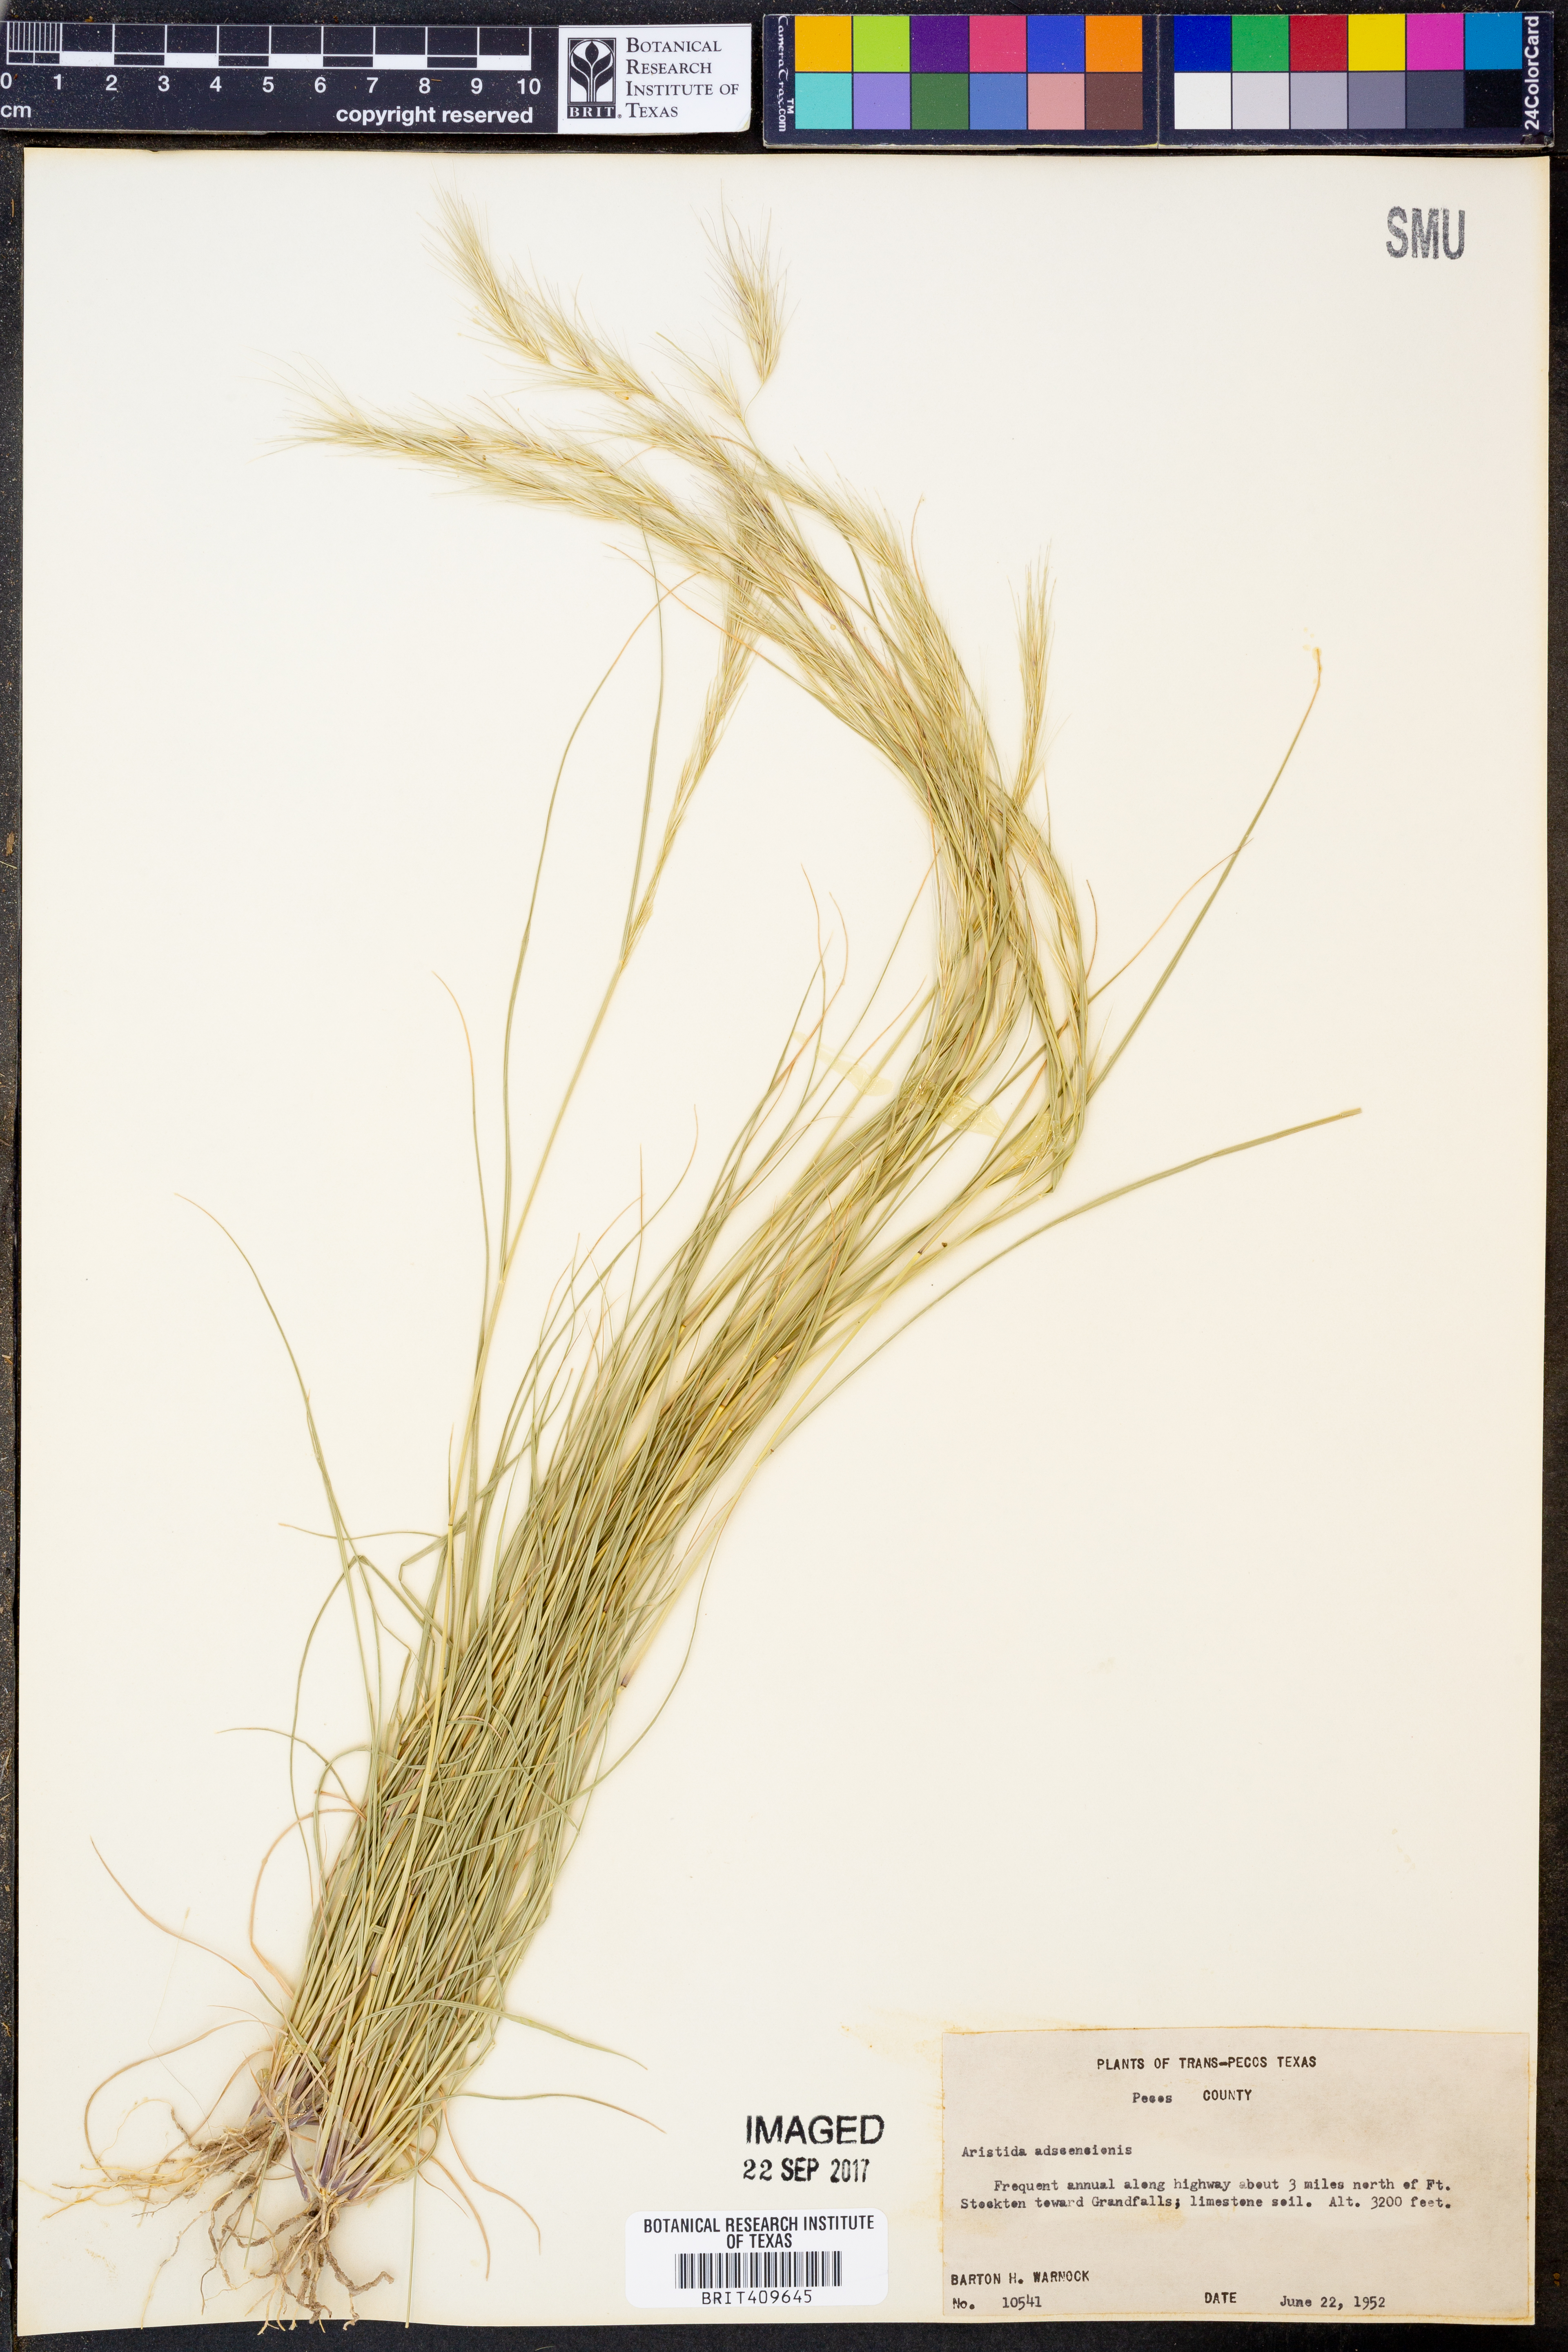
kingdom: Plantae
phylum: Tracheophyta
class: Liliopsida
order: Poales
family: Poaceae
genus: Aristida
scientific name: Aristida adscensionis
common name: Sixweeks threeawn
